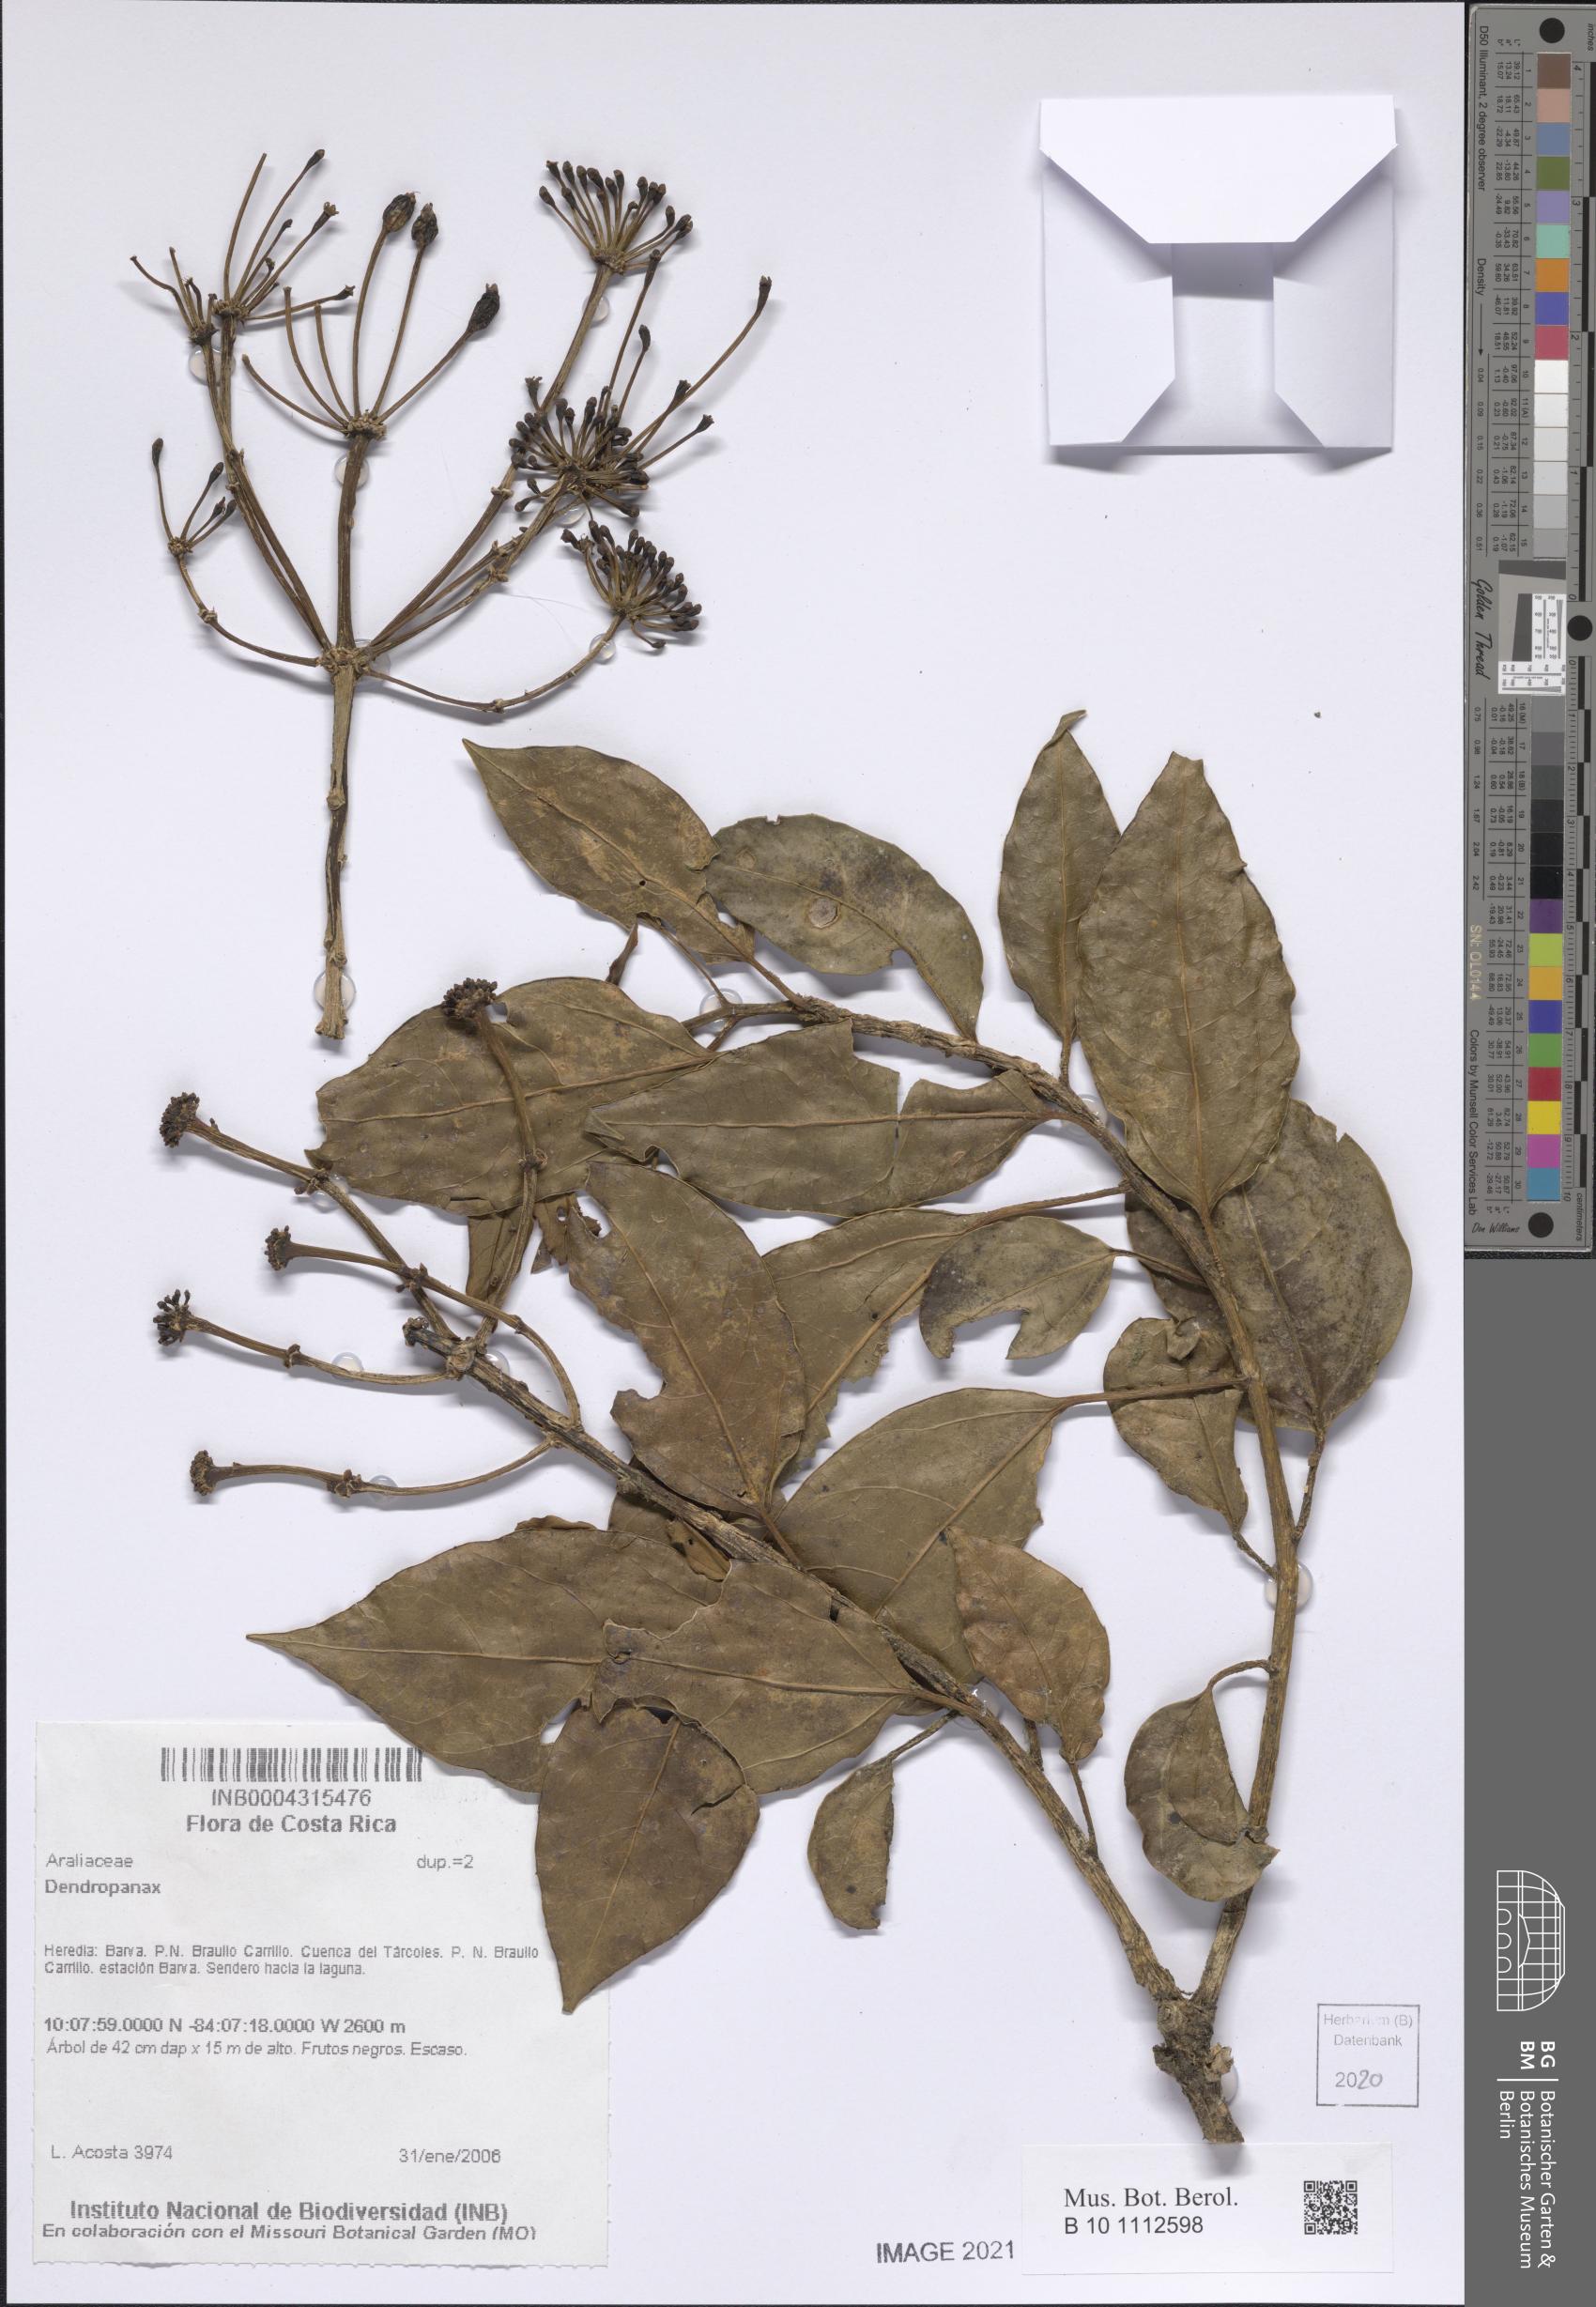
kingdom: Plantae
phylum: Tracheophyta
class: Magnoliopsida
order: Apiales
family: Araliaceae
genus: Dendropanax
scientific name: Dendropanax
